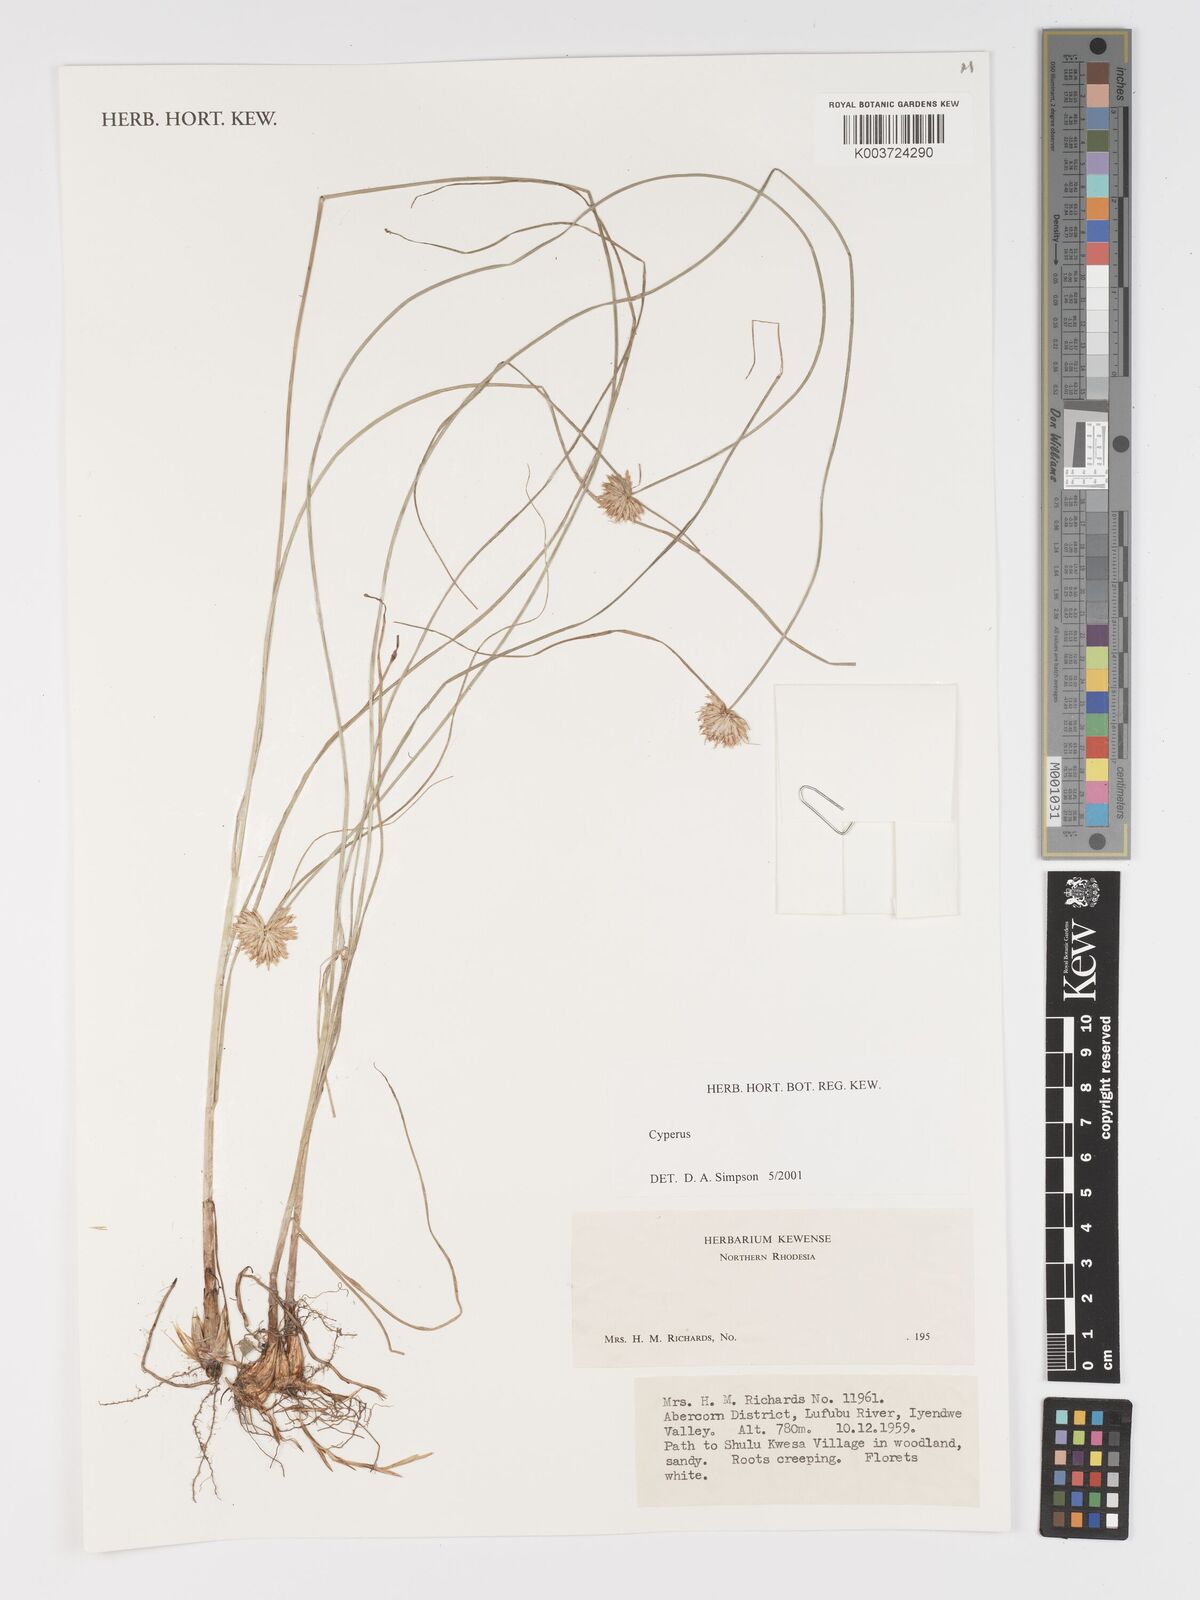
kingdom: Plantae
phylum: Tracheophyta
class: Liliopsida
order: Poales
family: Cyperaceae
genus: Cyperus
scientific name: Cyperus
